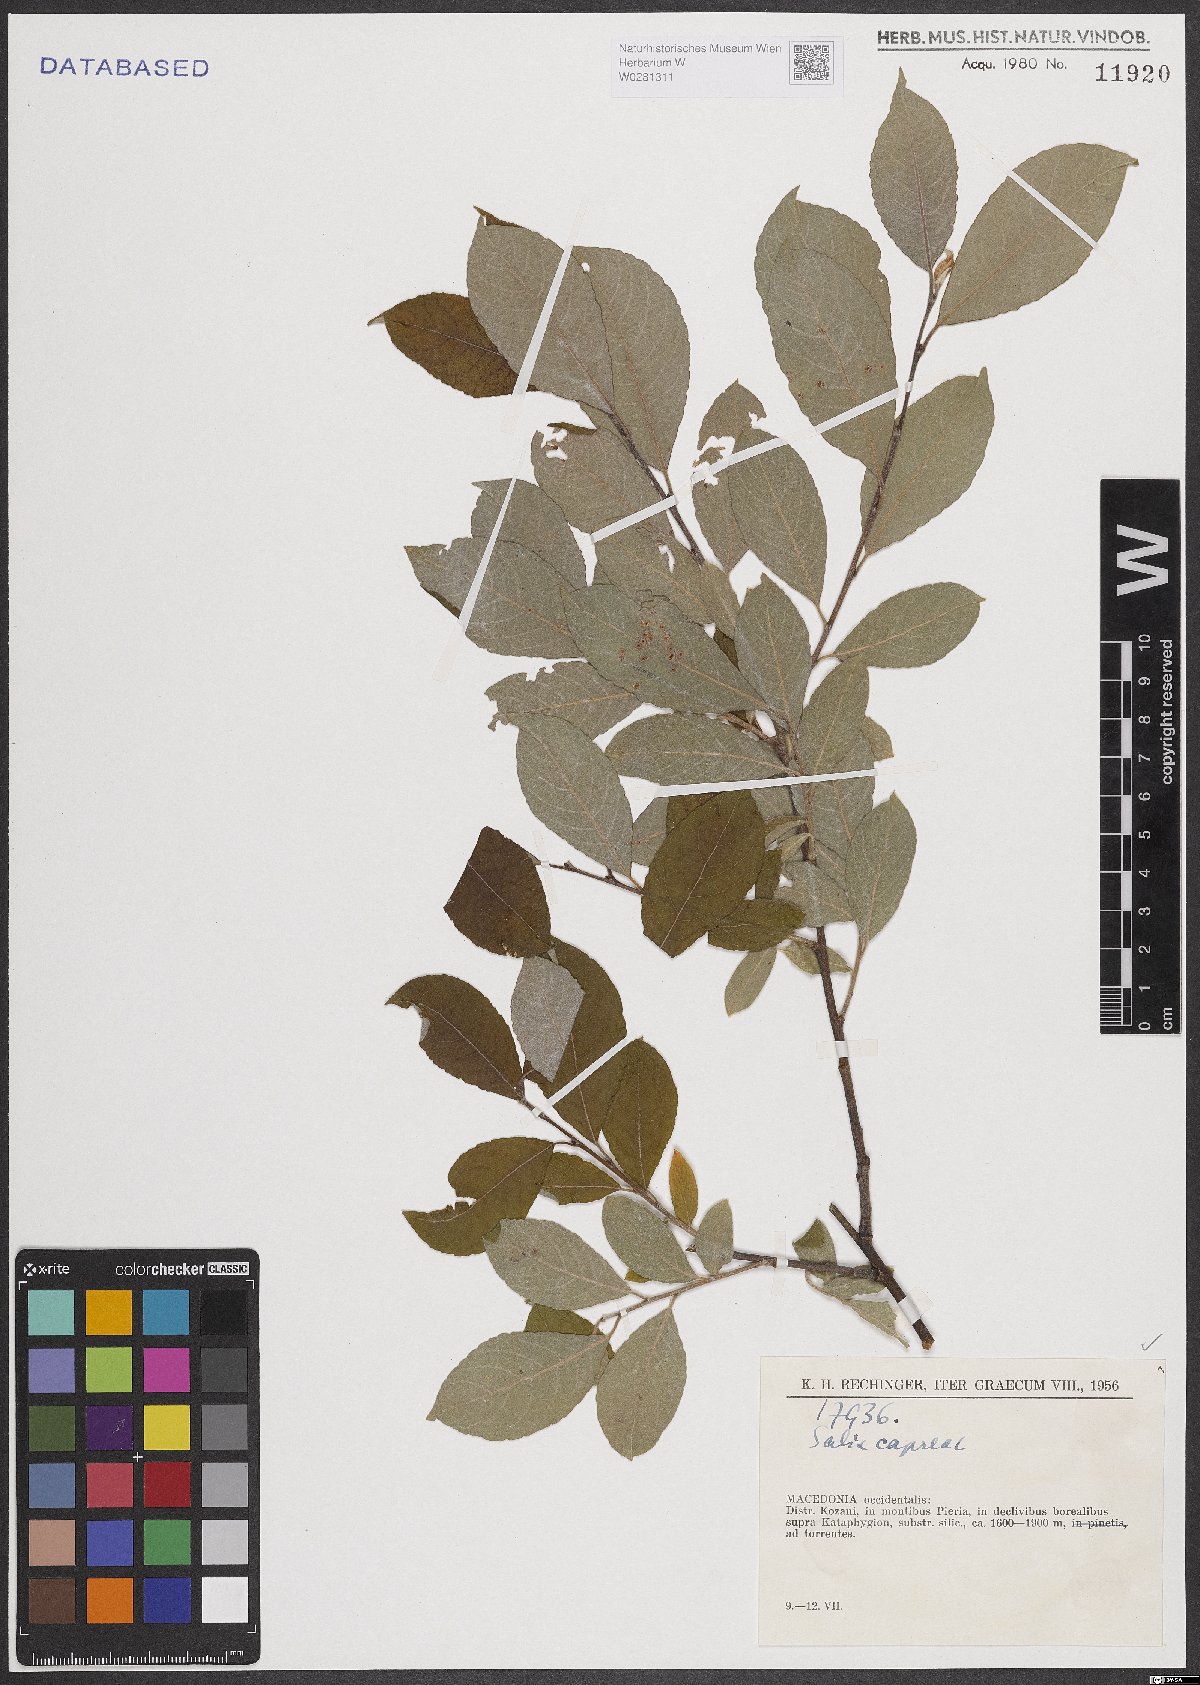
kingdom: Plantae
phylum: Tracheophyta
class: Magnoliopsida
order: Malpighiales
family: Salicaceae
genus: Salix
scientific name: Salix caprea
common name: Goat willow
